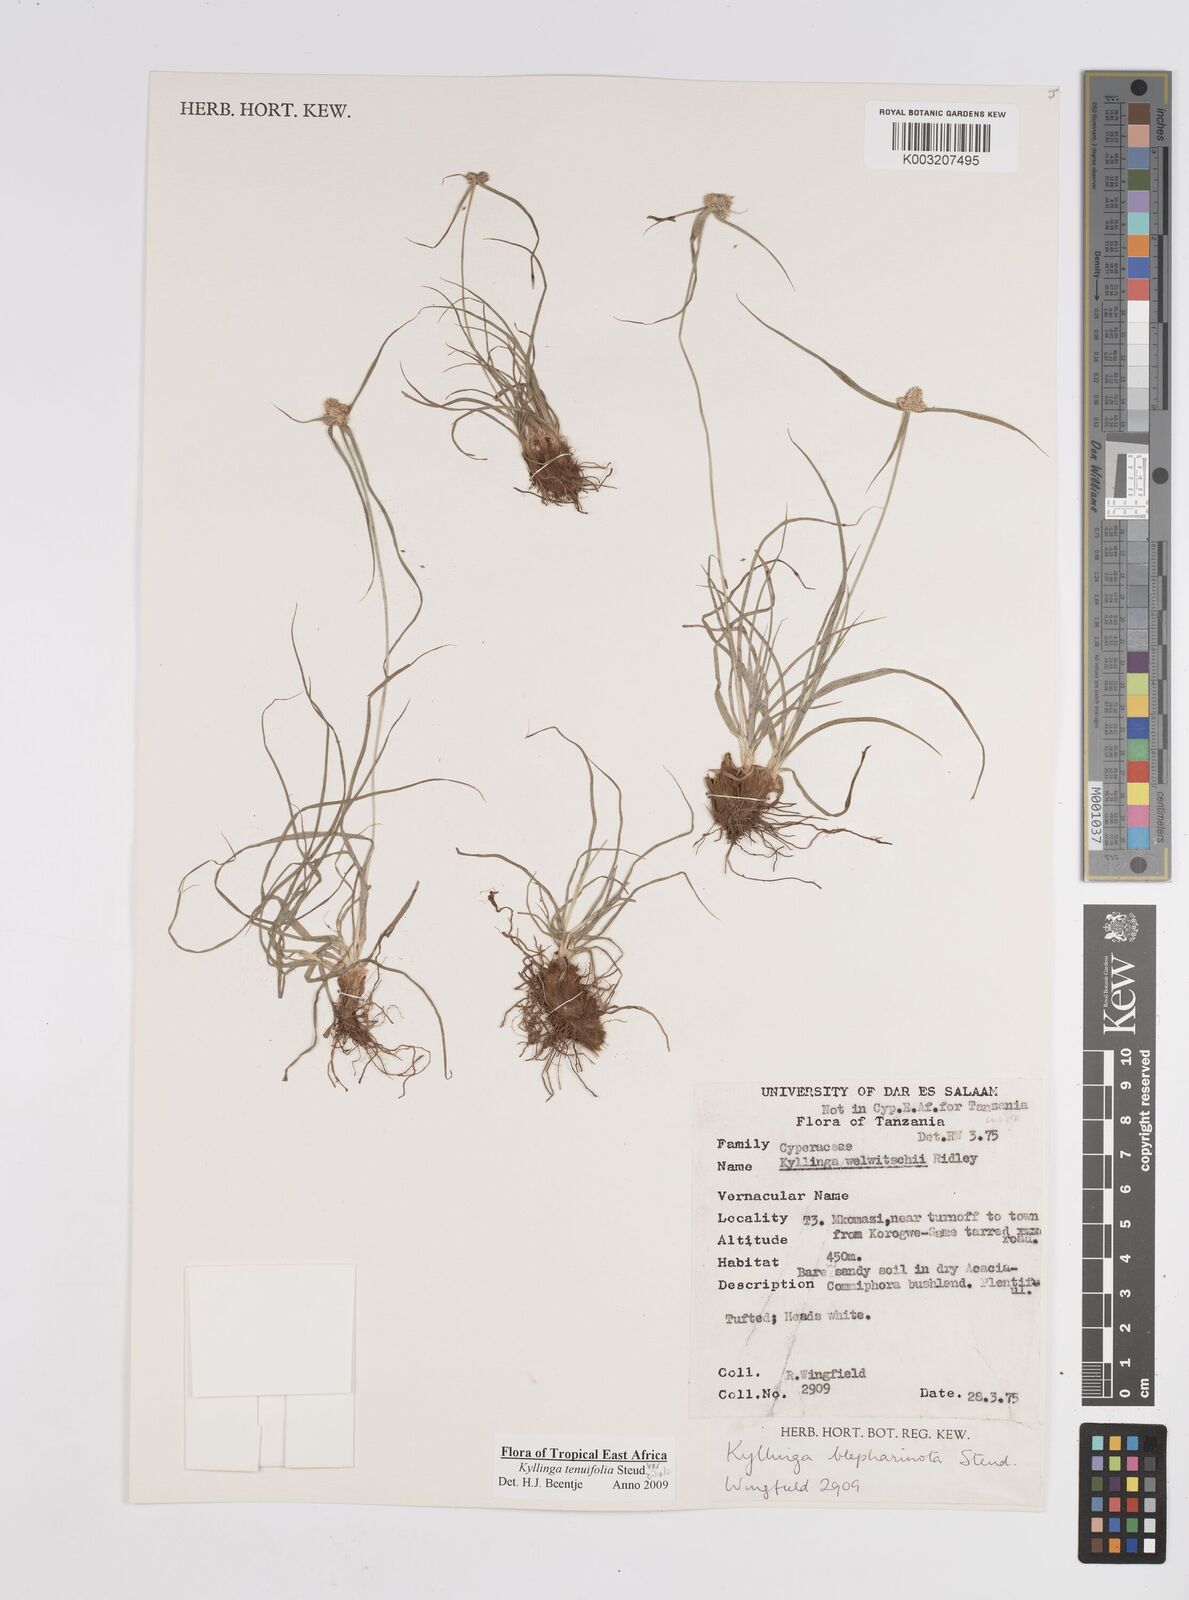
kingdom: Plantae
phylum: Tracheophyta
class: Liliopsida
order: Poales
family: Cyperaceae
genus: Cyperus
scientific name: Cyperus
